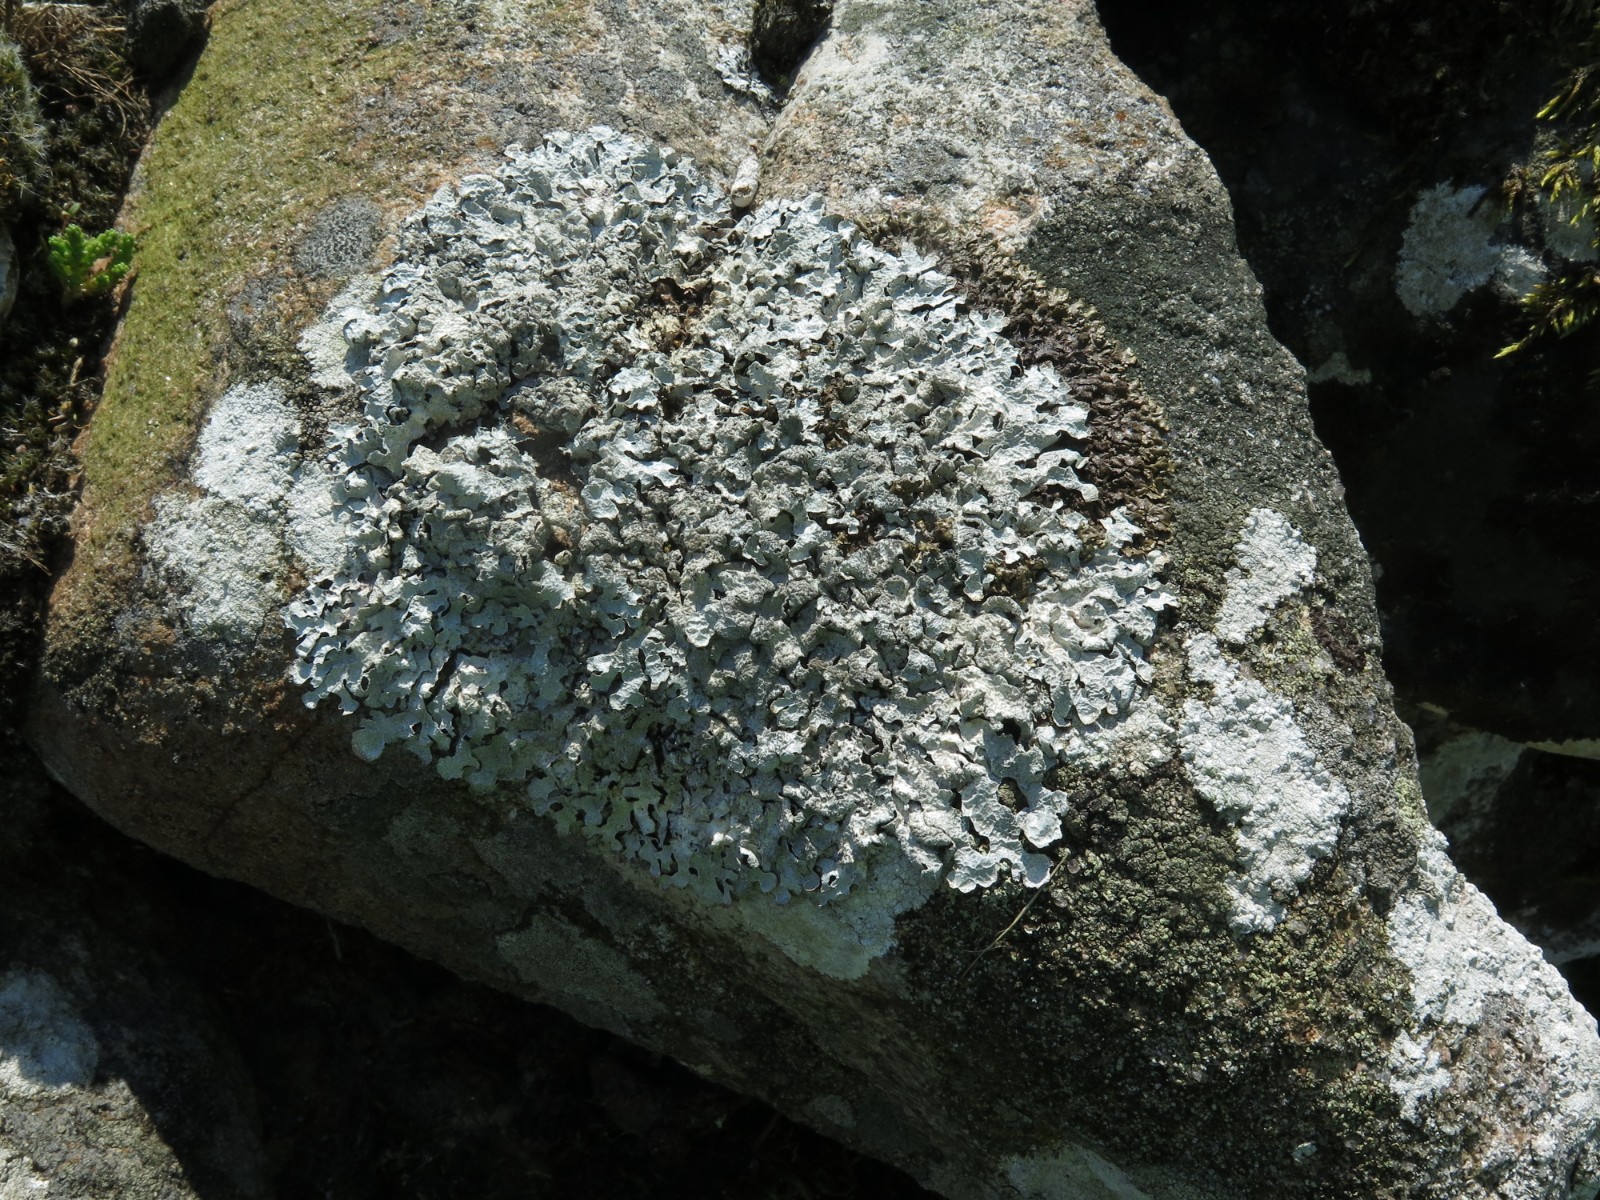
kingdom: Fungi
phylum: Ascomycota
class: Lecanoromycetes
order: Lecanorales
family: Parmeliaceae
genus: Parmelia
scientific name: Parmelia sulcata
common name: rynket skållav
